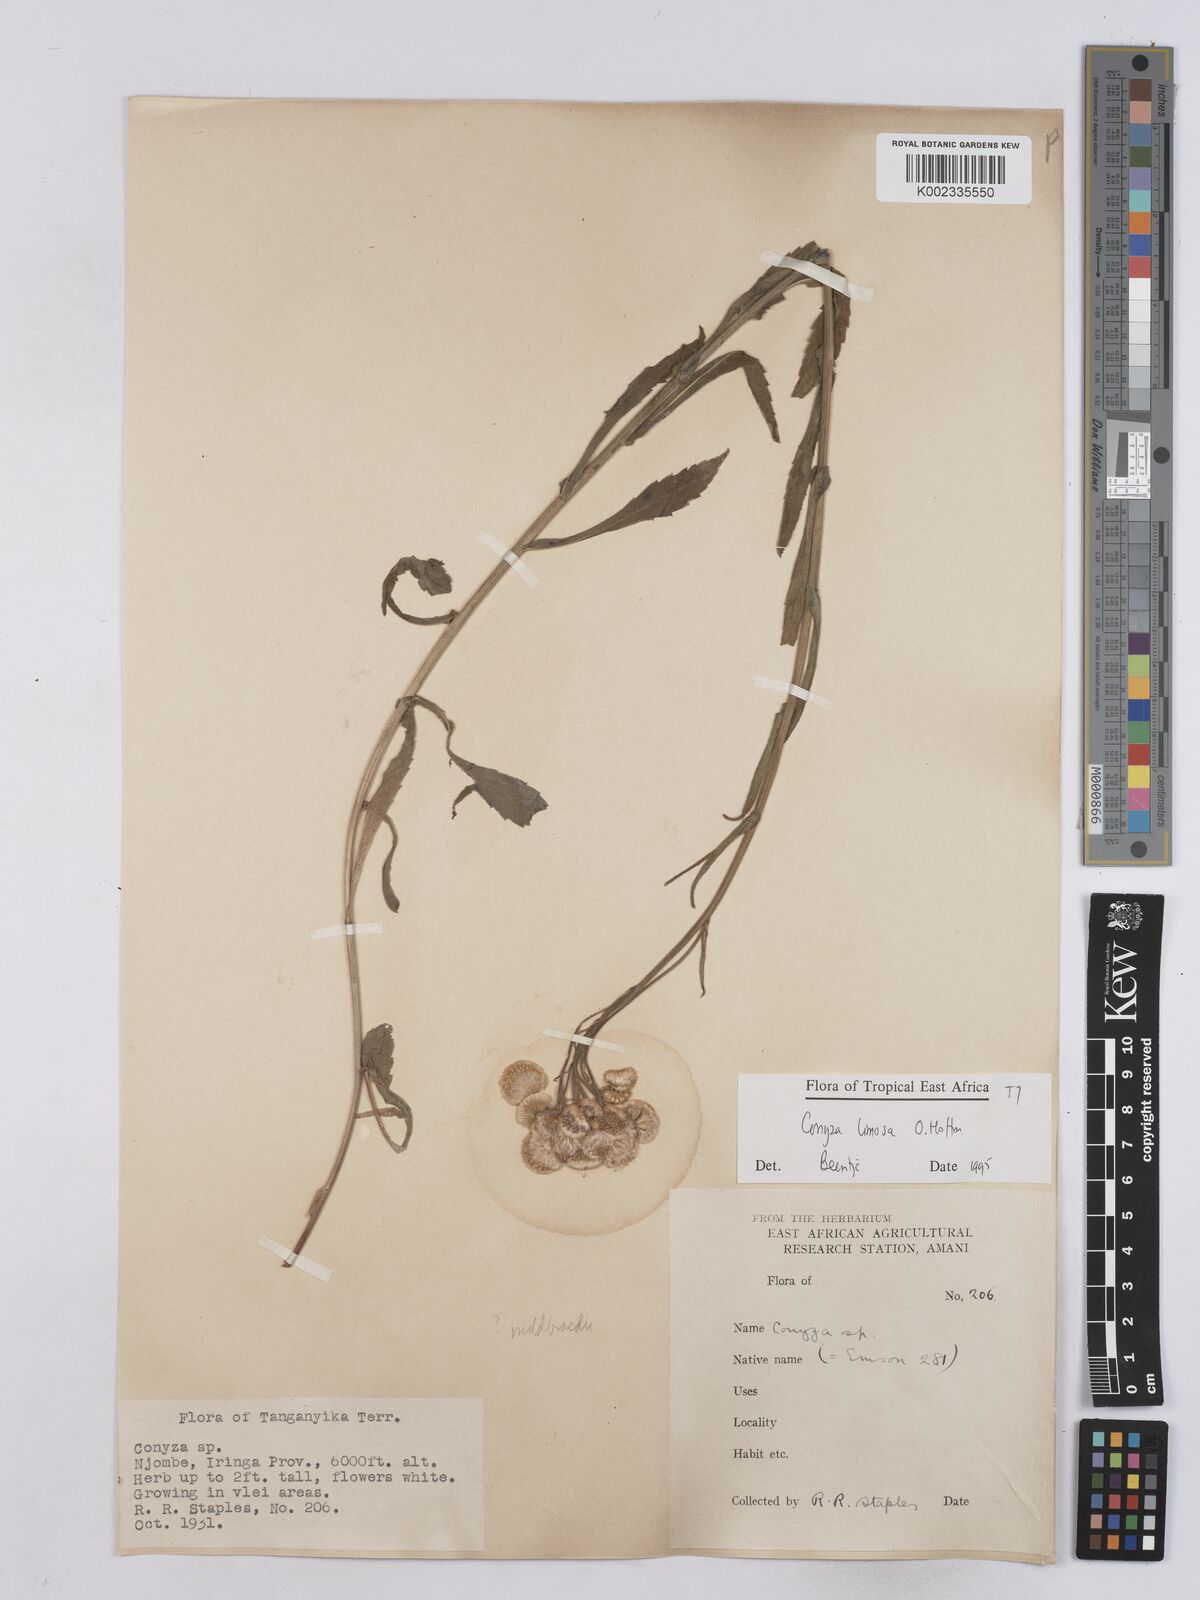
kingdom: Plantae
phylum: Tracheophyta
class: Magnoliopsida
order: Asterales
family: Asteraceae
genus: Conyza
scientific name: Conyza limosa
